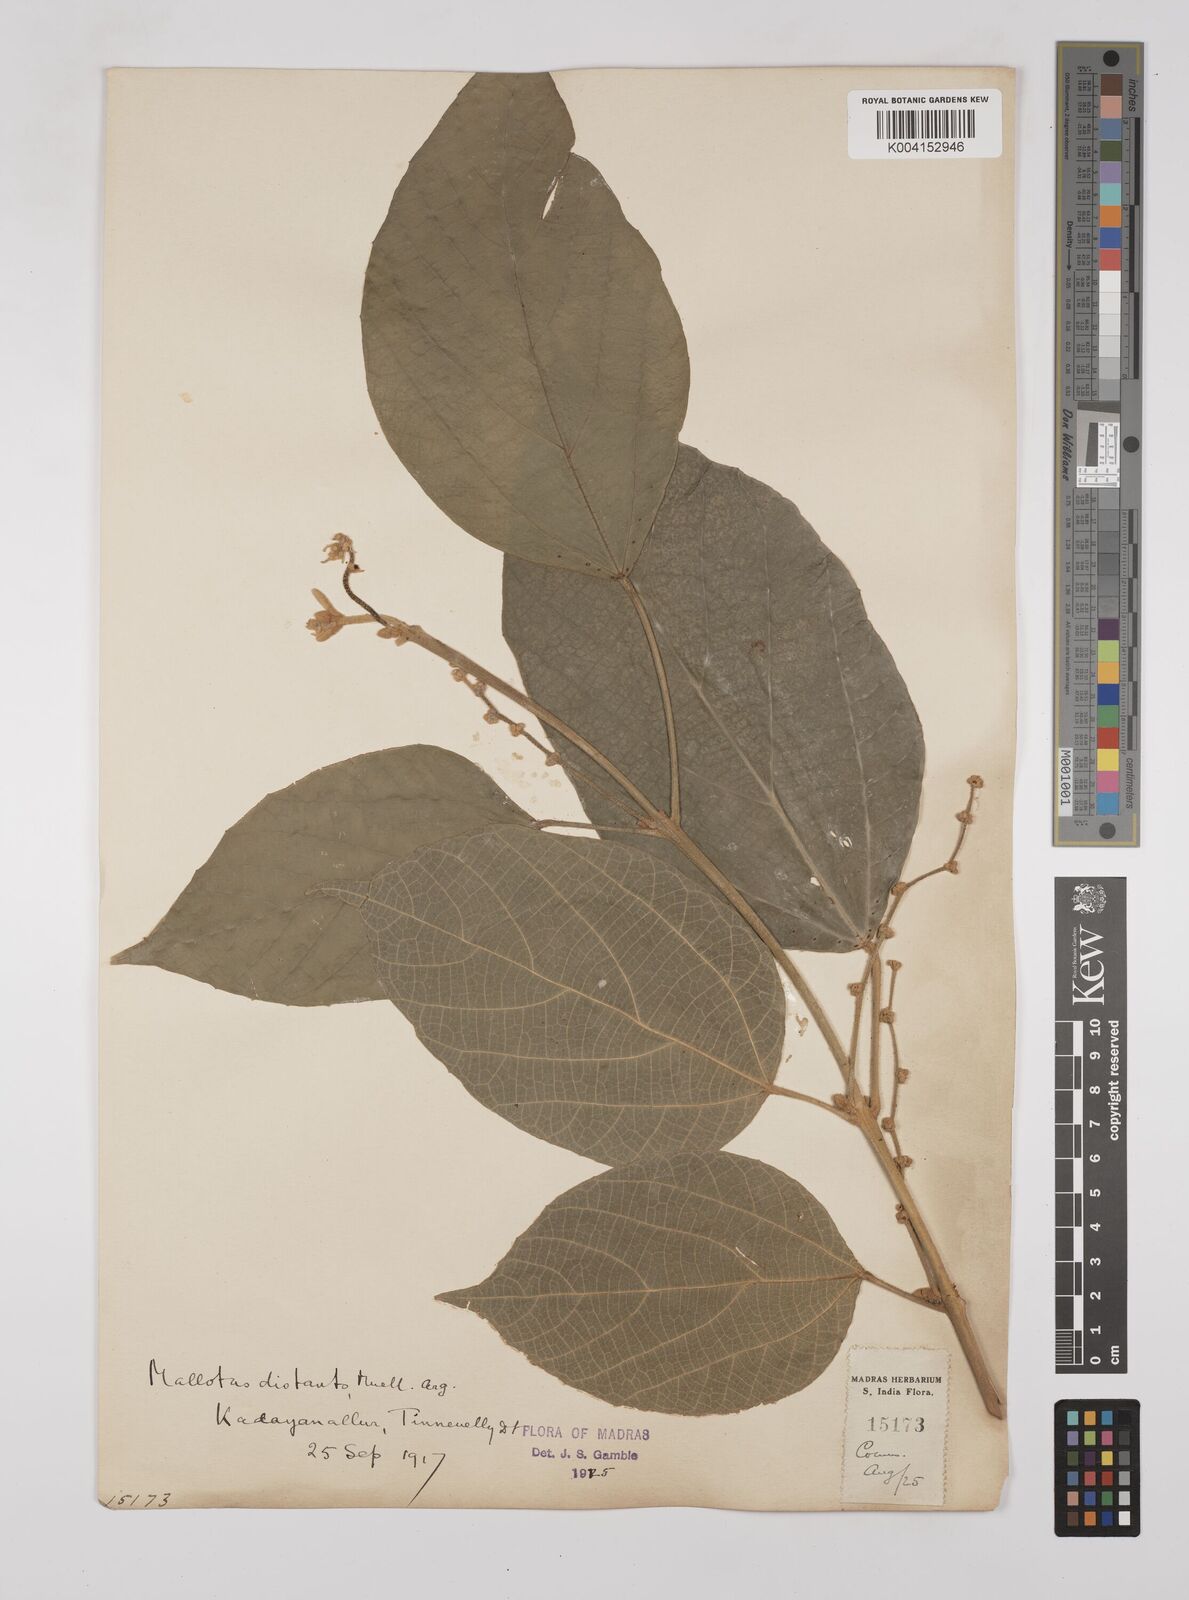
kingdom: Plantae
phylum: Tracheophyta
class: Magnoliopsida
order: Malpighiales
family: Euphorbiaceae
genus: Mallotus
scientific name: Mallotus distans
